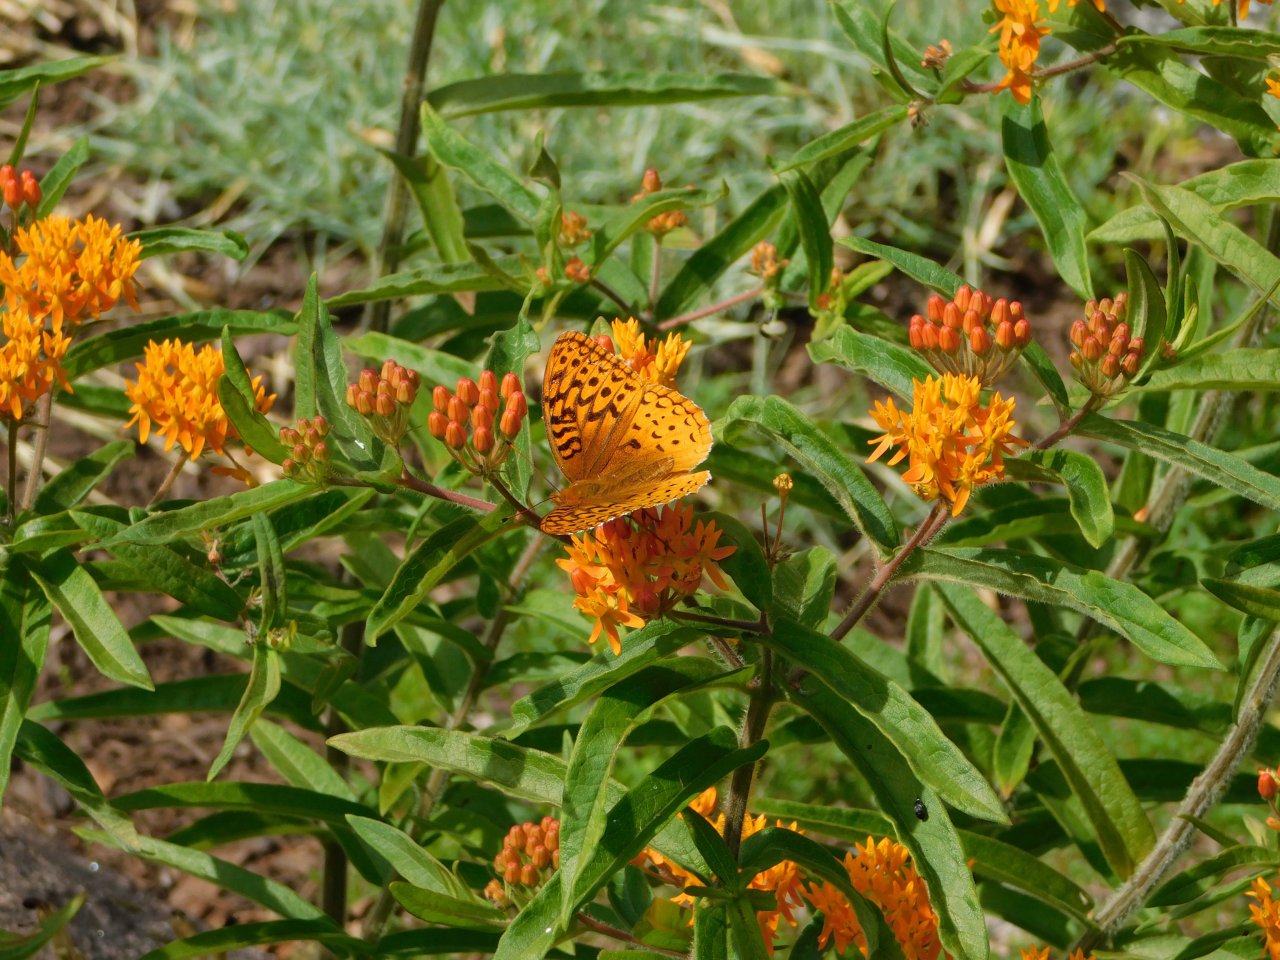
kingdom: Animalia
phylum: Arthropoda
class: Insecta
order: Lepidoptera
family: Nymphalidae
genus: Speyeria
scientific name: Speyeria cybele
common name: Great Spangled Fritillary
